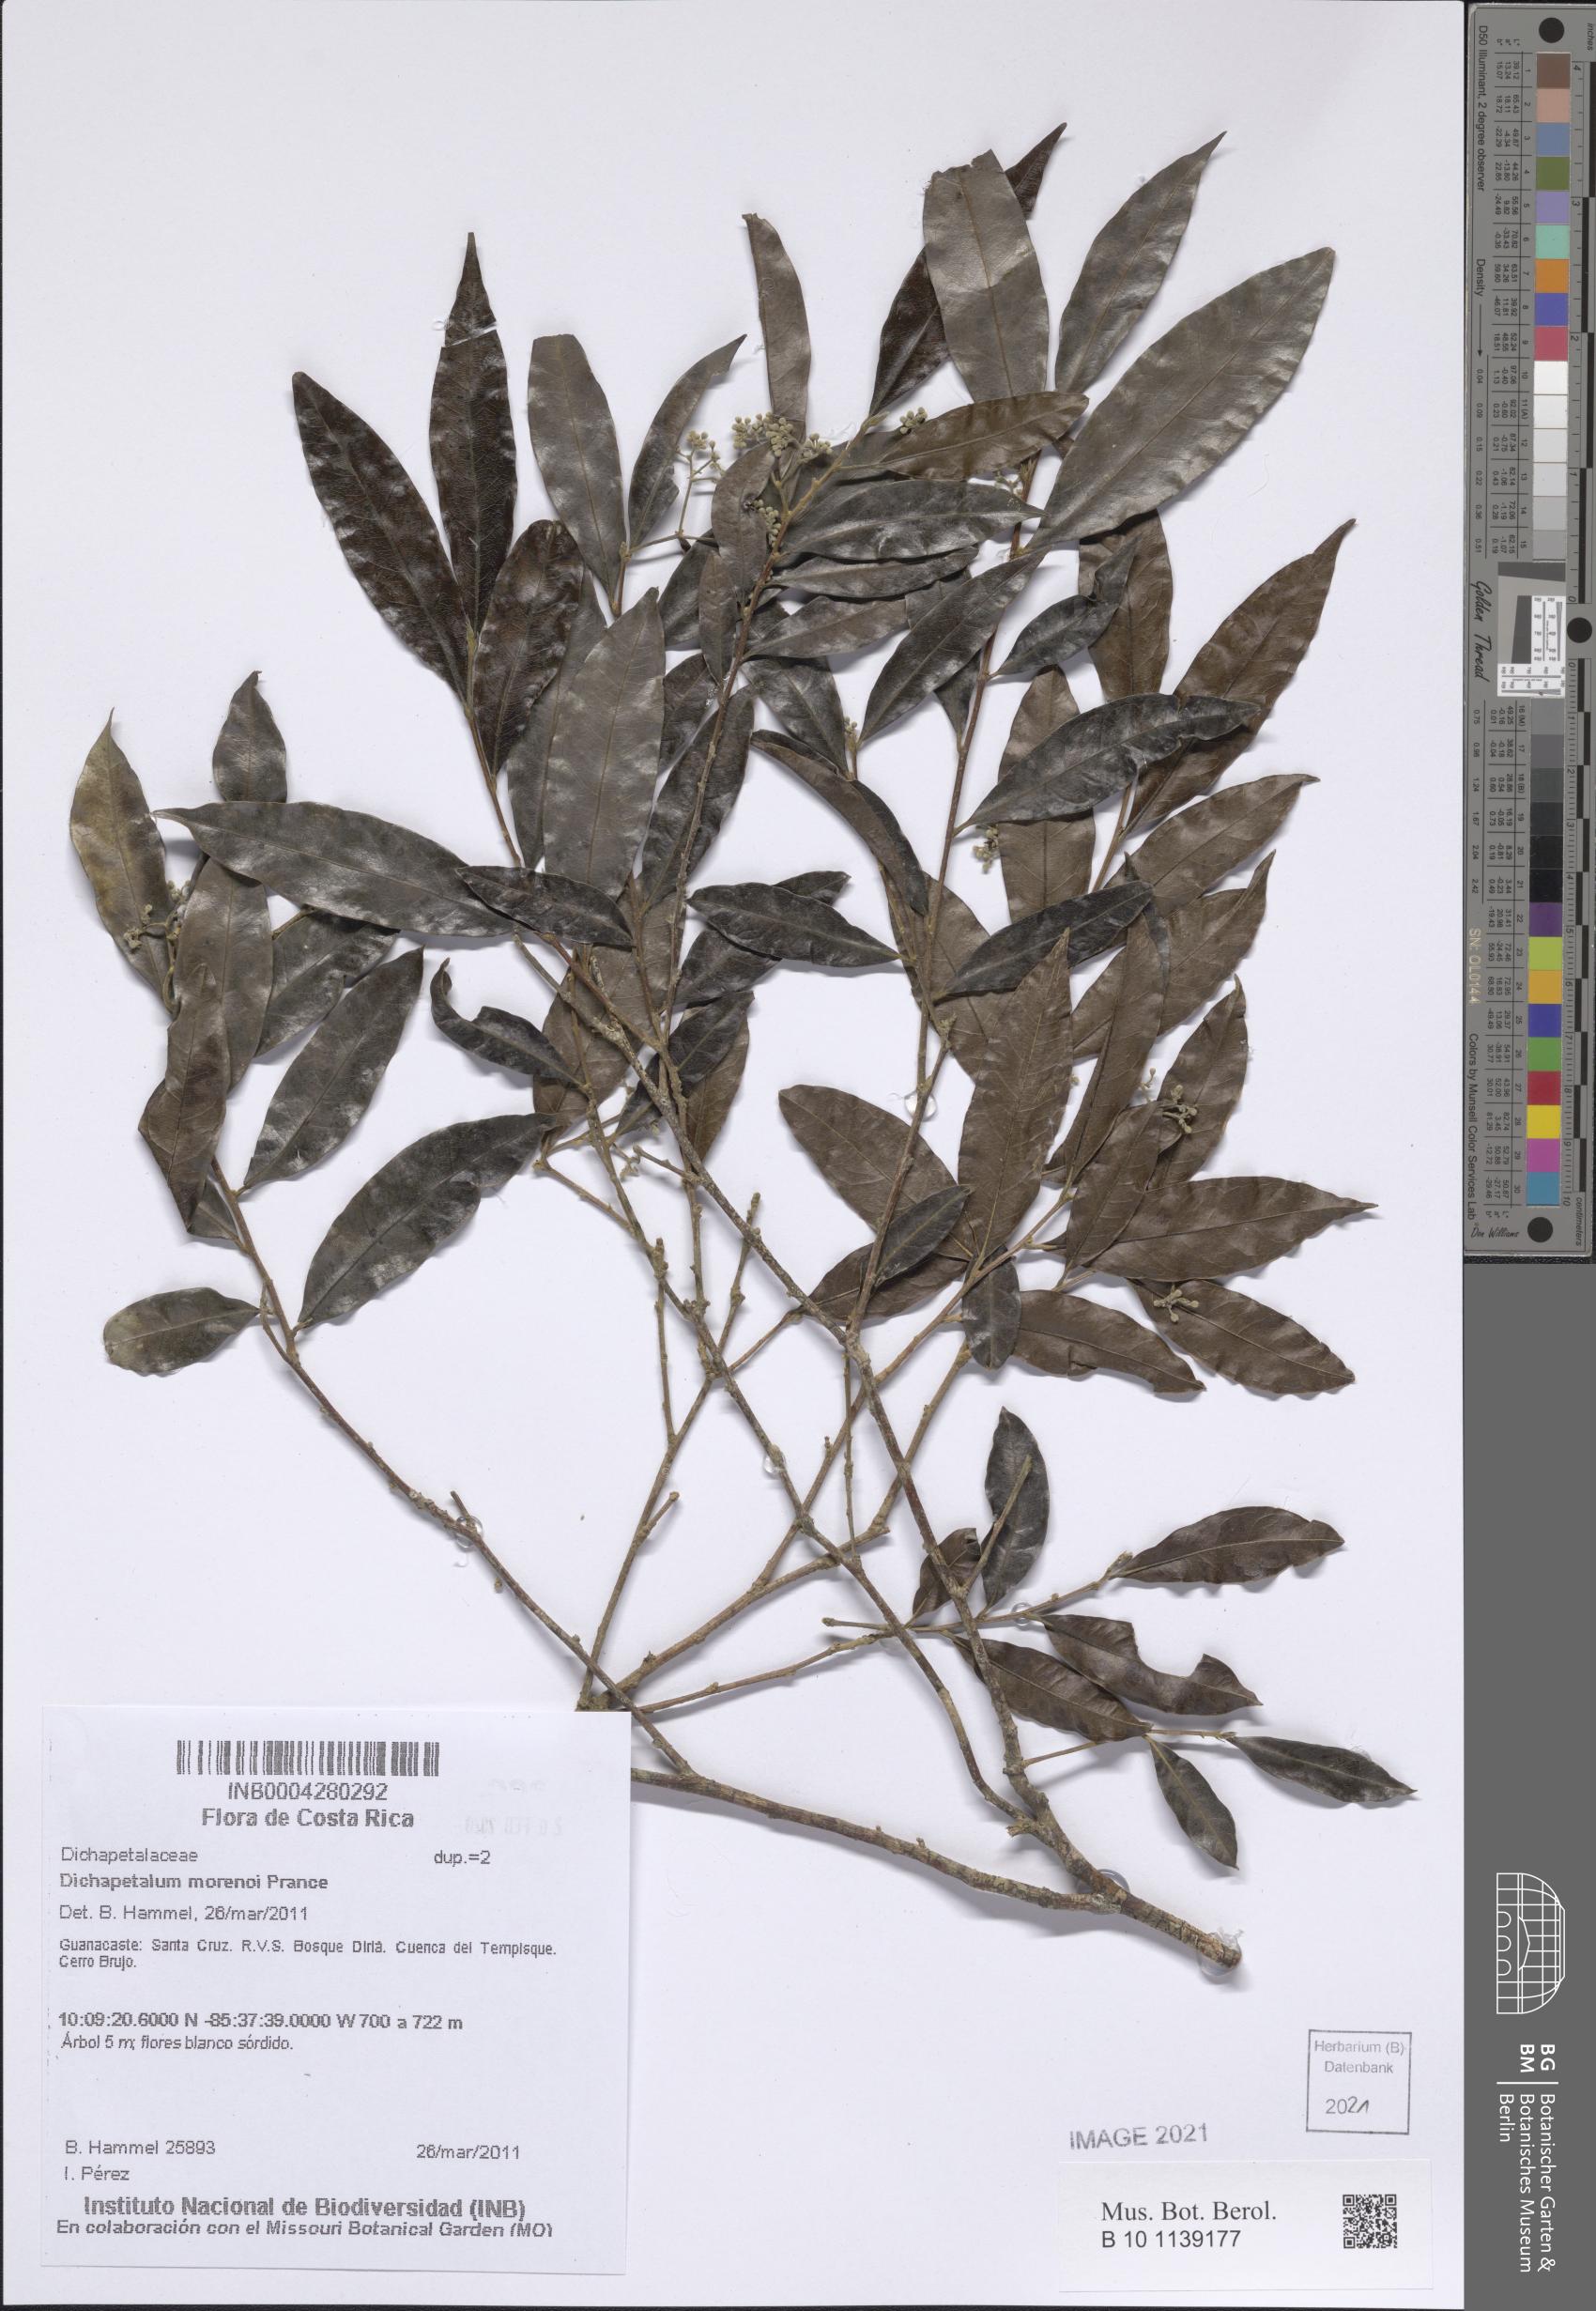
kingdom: Plantae
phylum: Tracheophyta
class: Magnoliopsida
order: Malpighiales
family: Dichapetalaceae
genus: Dichapetalum
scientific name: Dichapetalum morenoi
